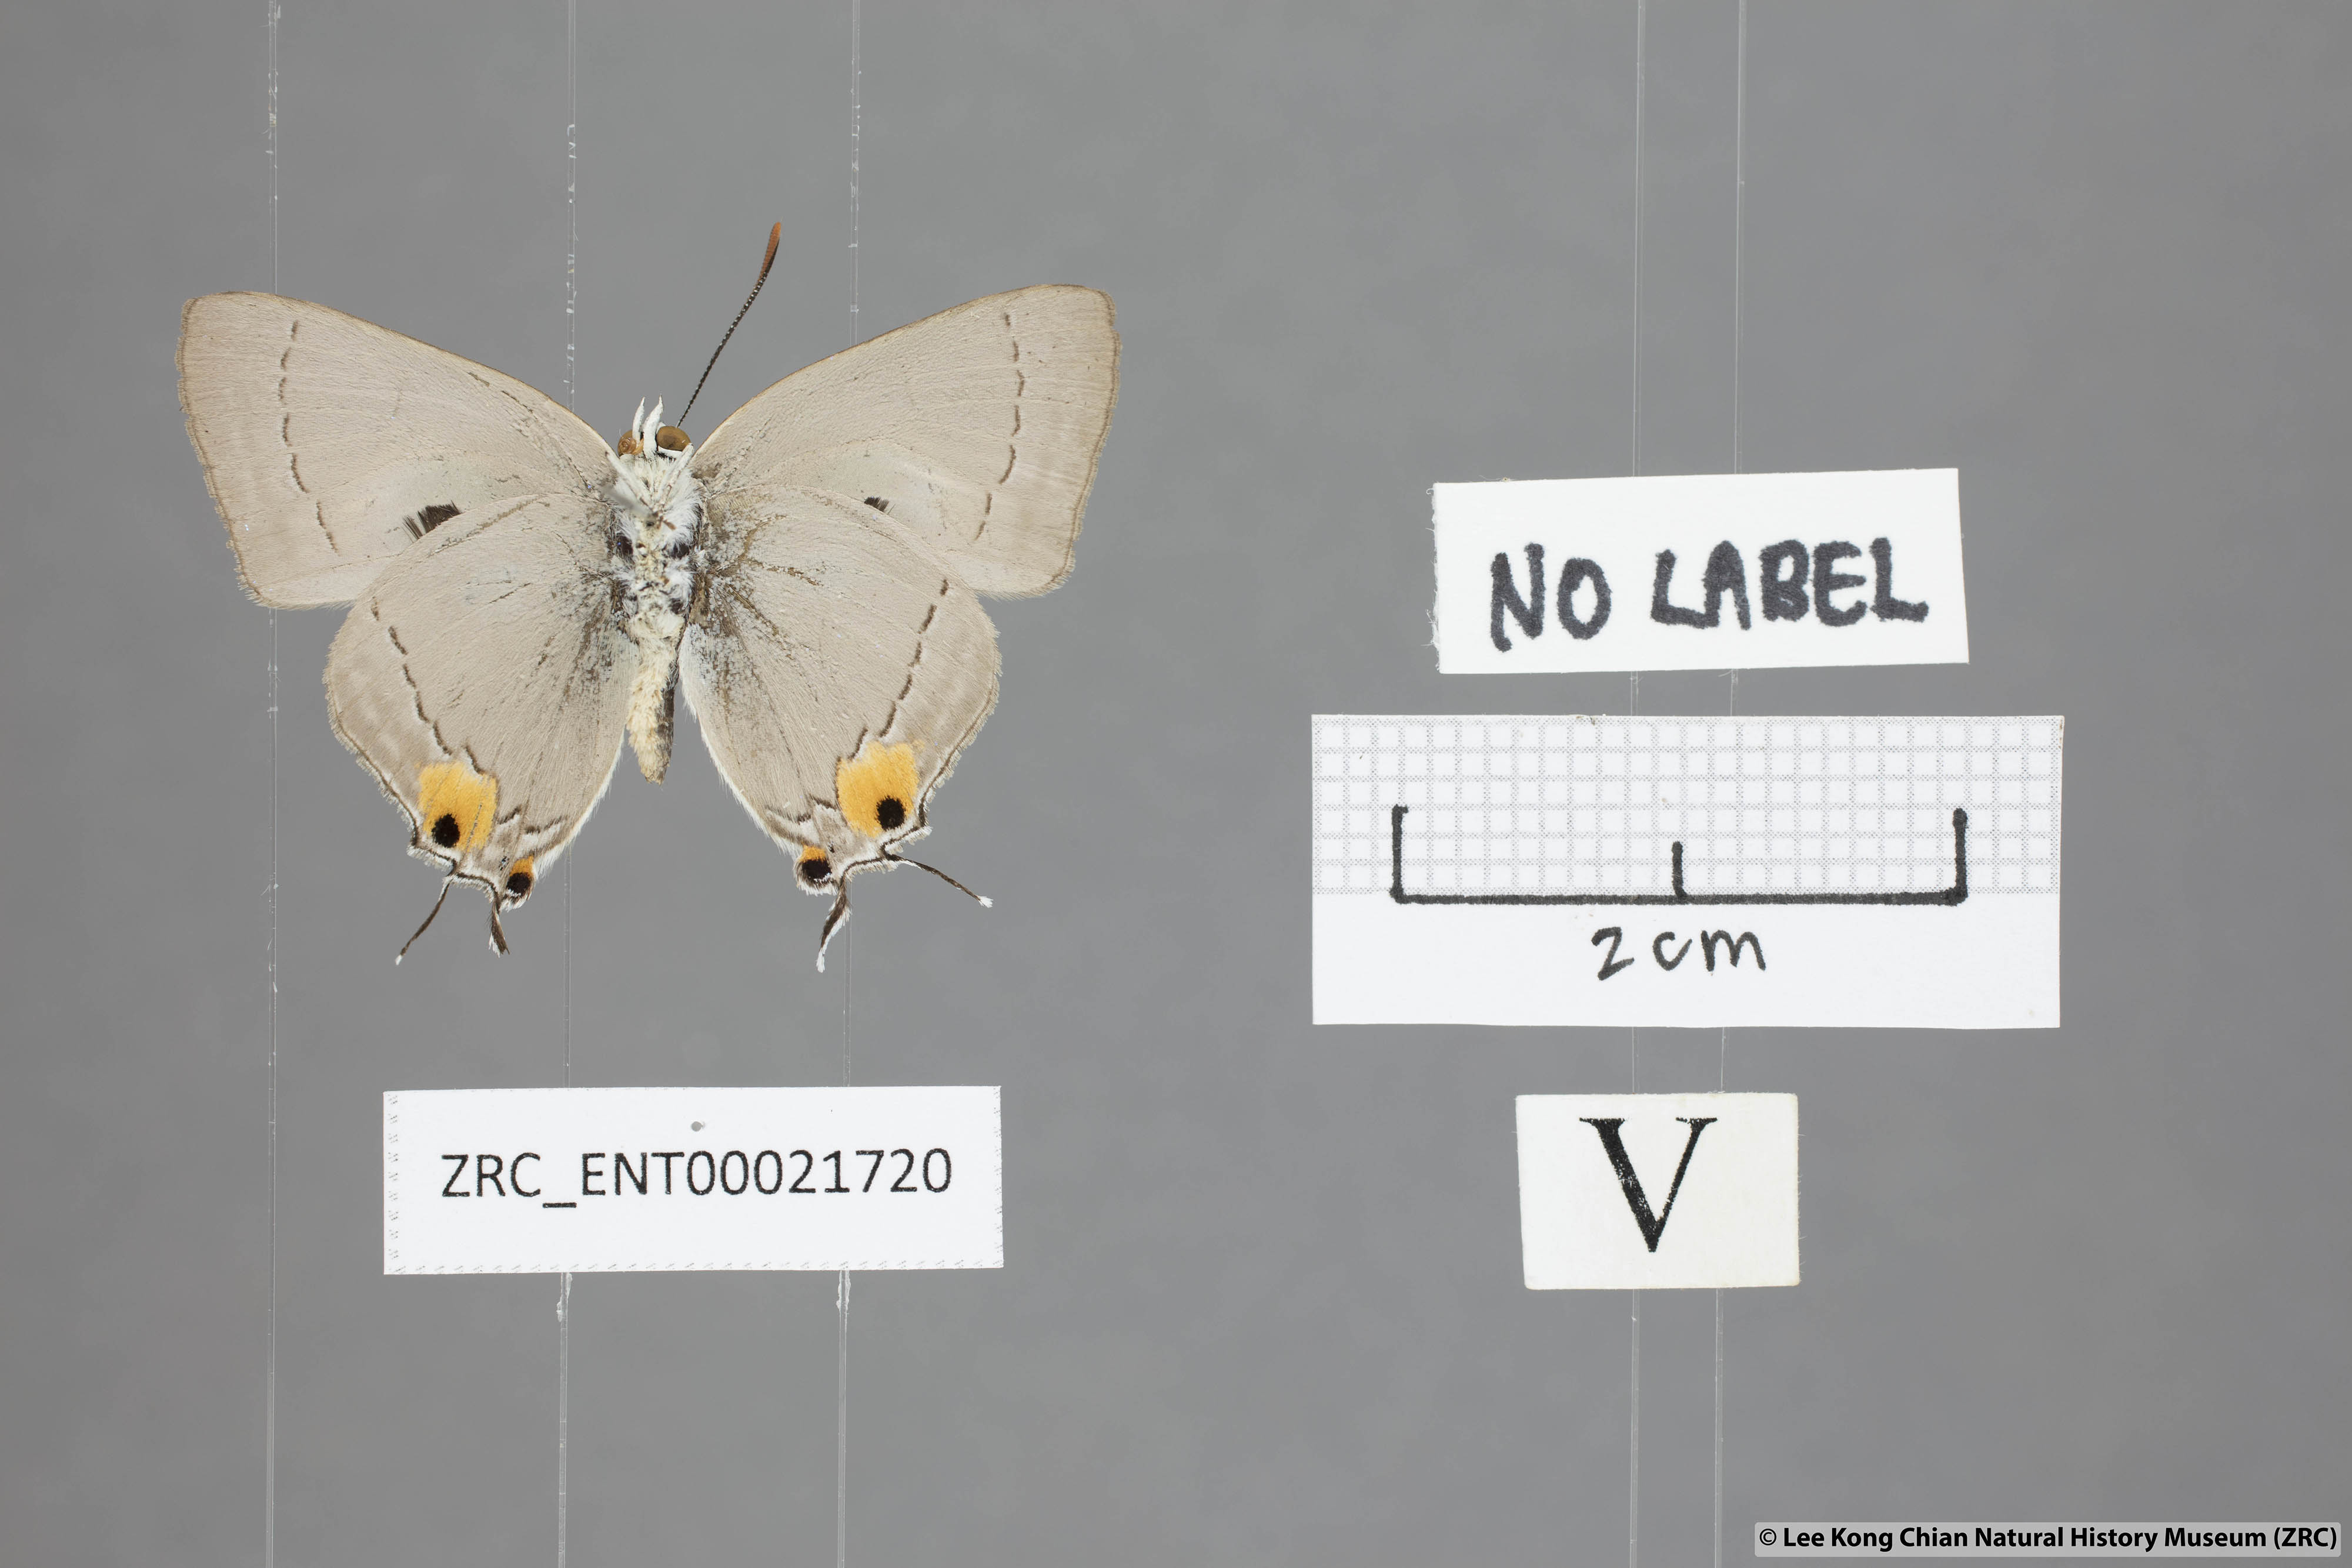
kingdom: Animalia
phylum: Arthropoda
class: Insecta
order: Lepidoptera
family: Lycaenidae
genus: Pratapa
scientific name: Pratapa deva
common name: White royal
